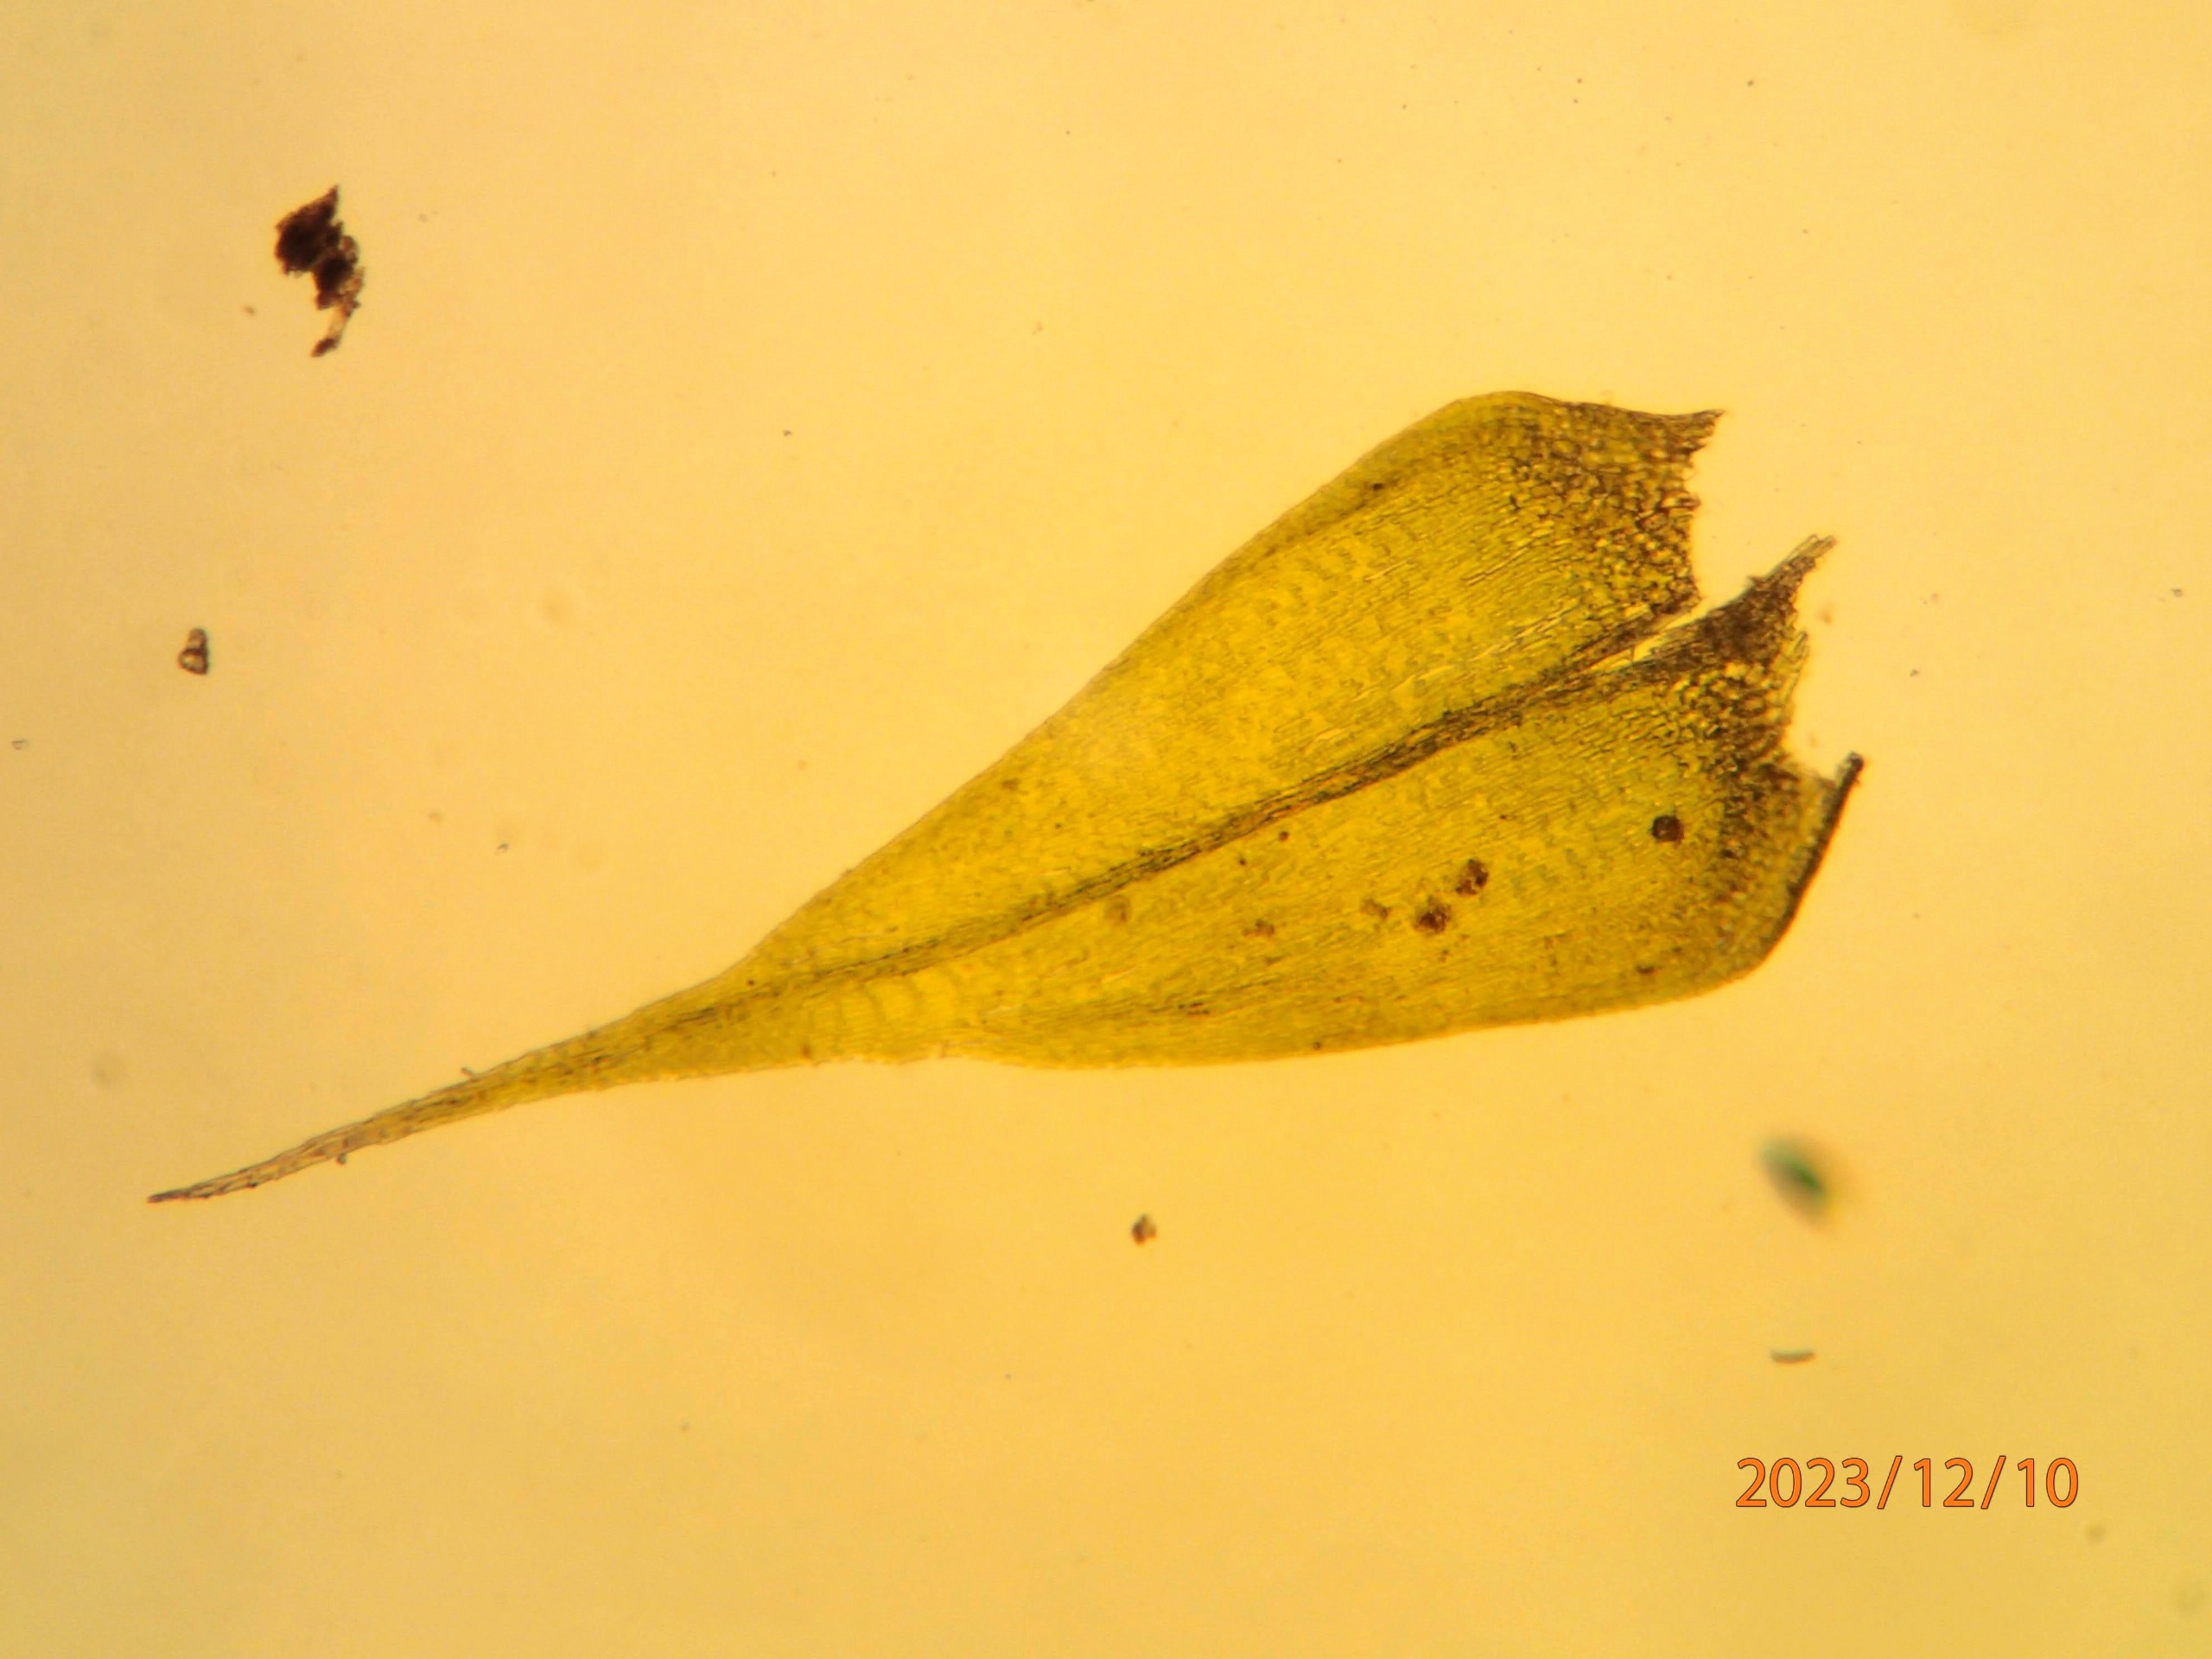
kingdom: Plantae
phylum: Bryophyta
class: Bryopsida
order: Hypnales
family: Brachytheciaceae
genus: Sciuro-hypnum
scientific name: Sciuro-hypnum populeum
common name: Park-kortkapsel
